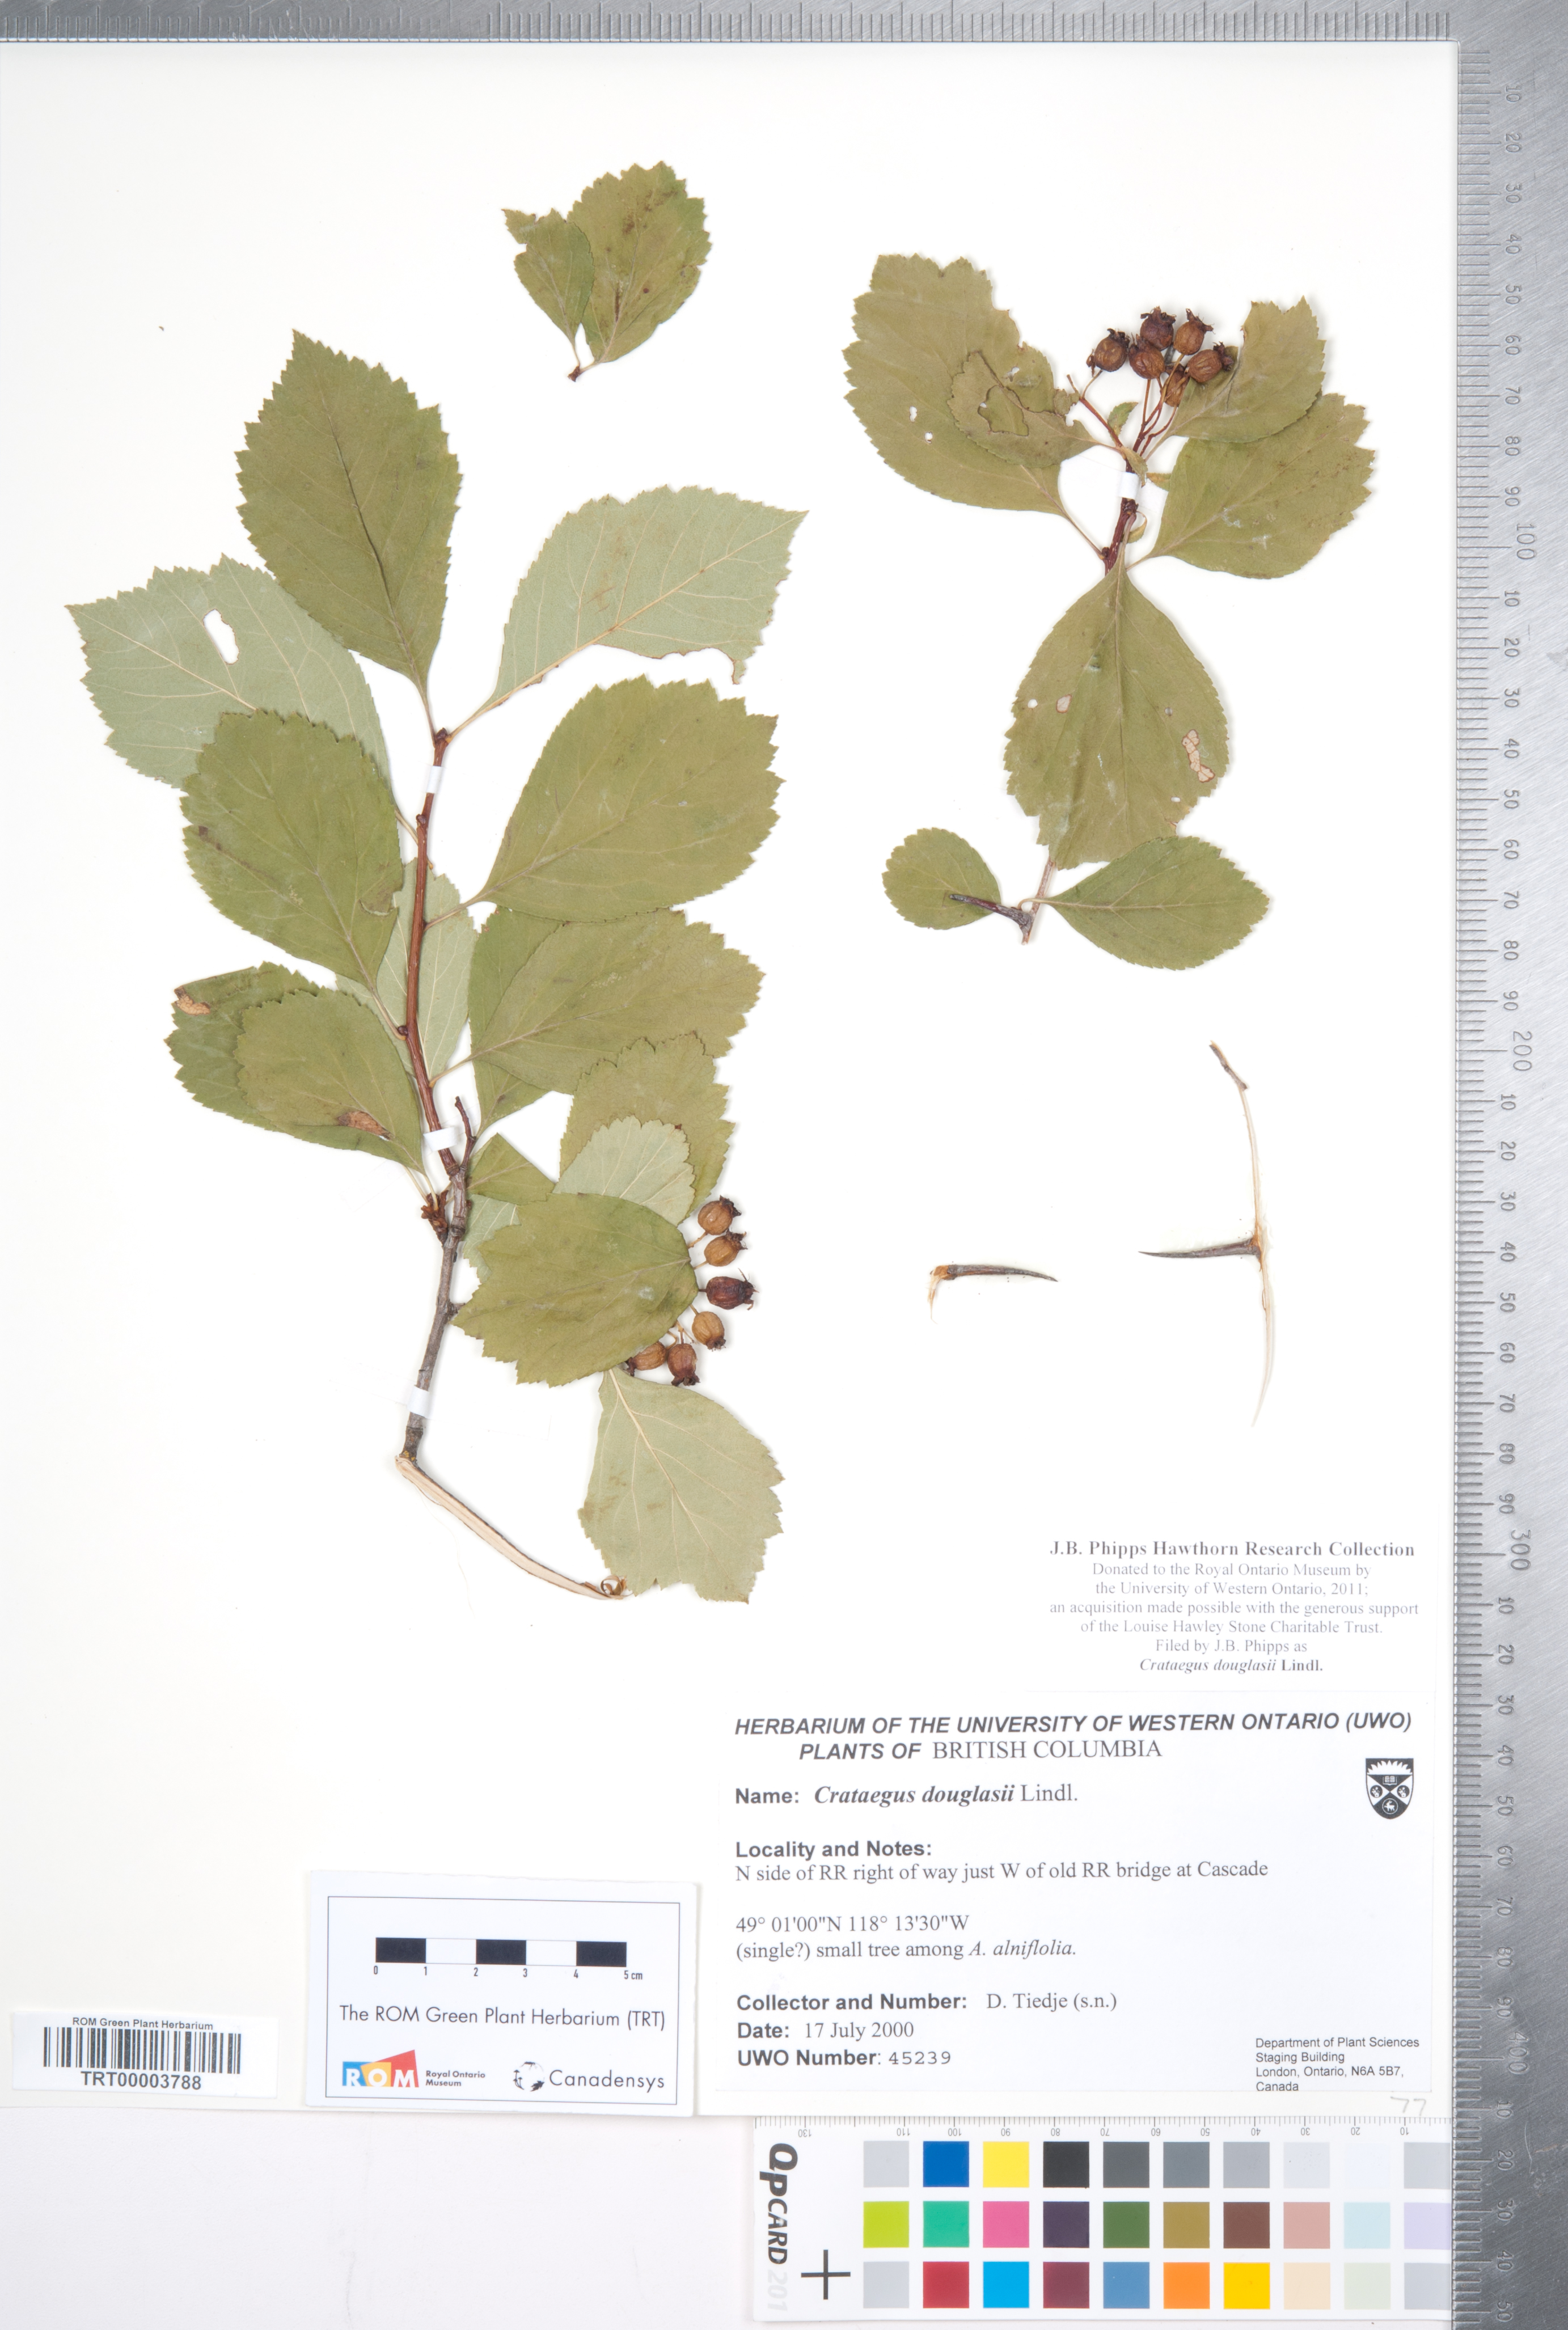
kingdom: Plantae
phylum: Tracheophyta
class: Magnoliopsida
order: Rosales
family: Rosaceae
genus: Crataegus
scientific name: Crataegus douglasii
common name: Black hawthorn
